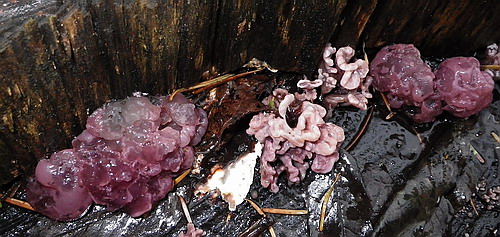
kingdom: Fungi
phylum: Ascomycota
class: Leotiomycetes
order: Helotiales
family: Gelatinodiscaceae
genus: Ascocoryne
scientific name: Ascocoryne sarcoides
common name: rødlilla sejskive
